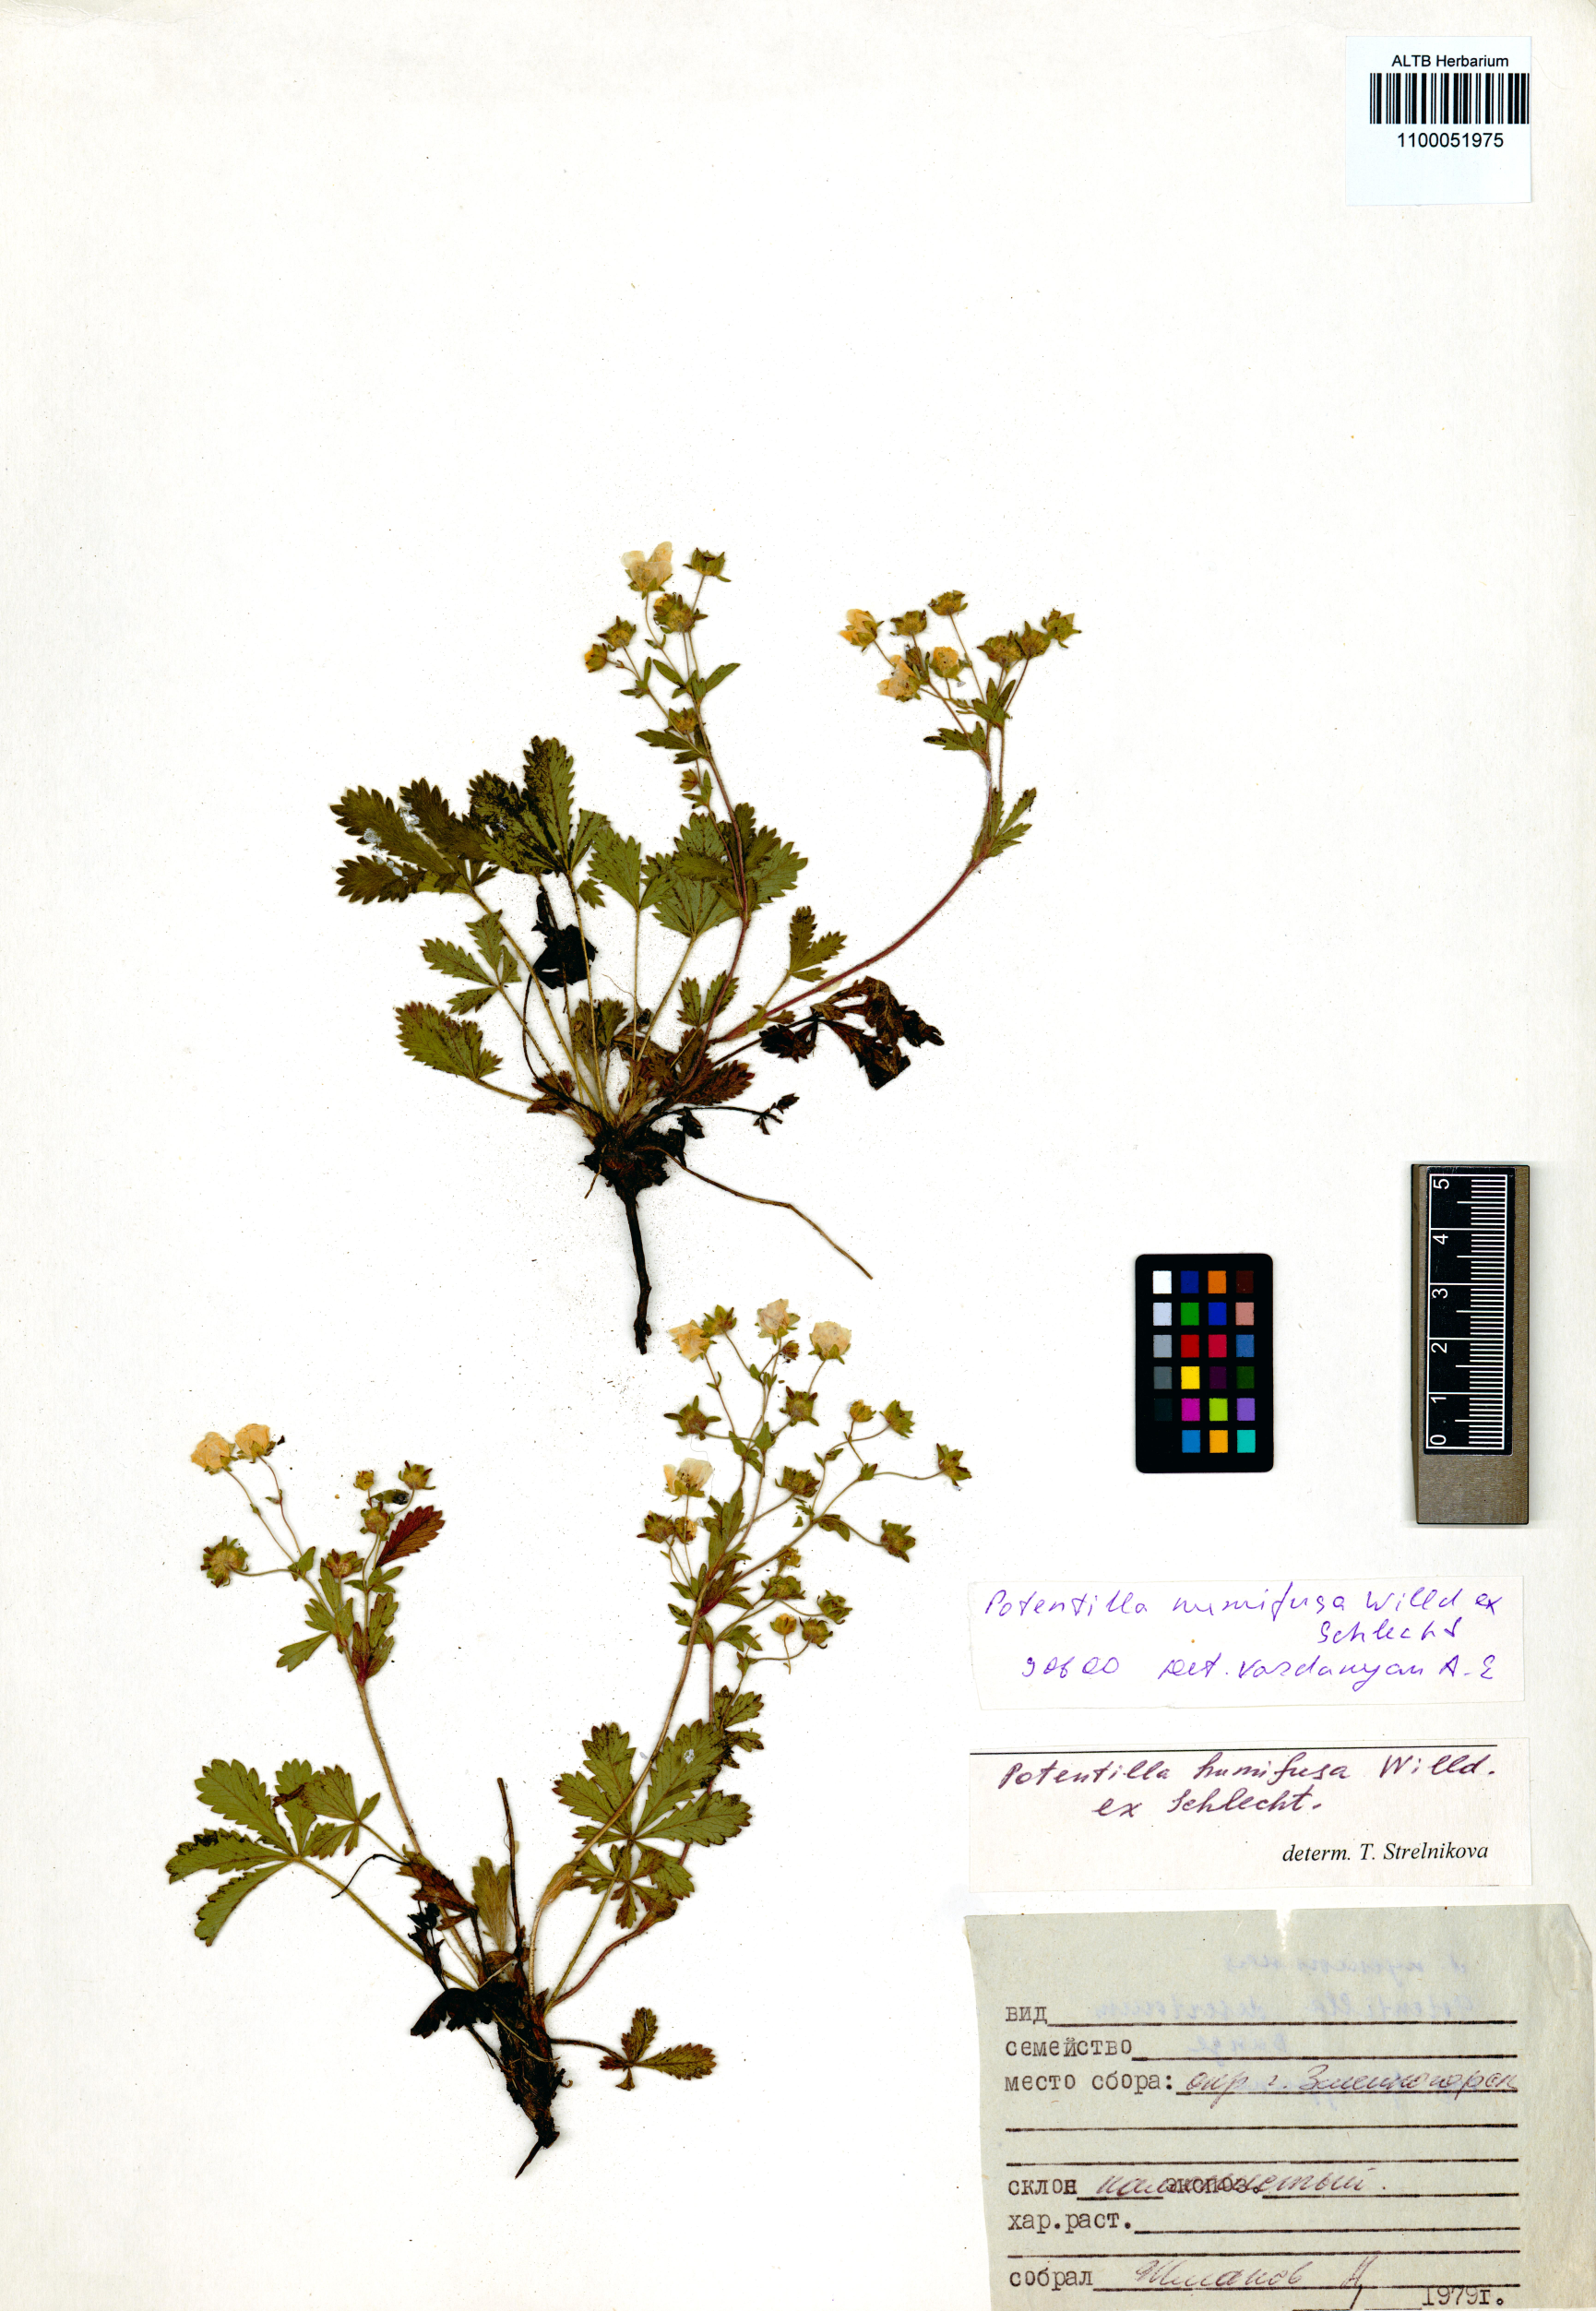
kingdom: Plantae
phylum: Tracheophyta
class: Magnoliopsida
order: Rosales
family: Rosaceae
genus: Potentilla
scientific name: Potentilla humifusa
